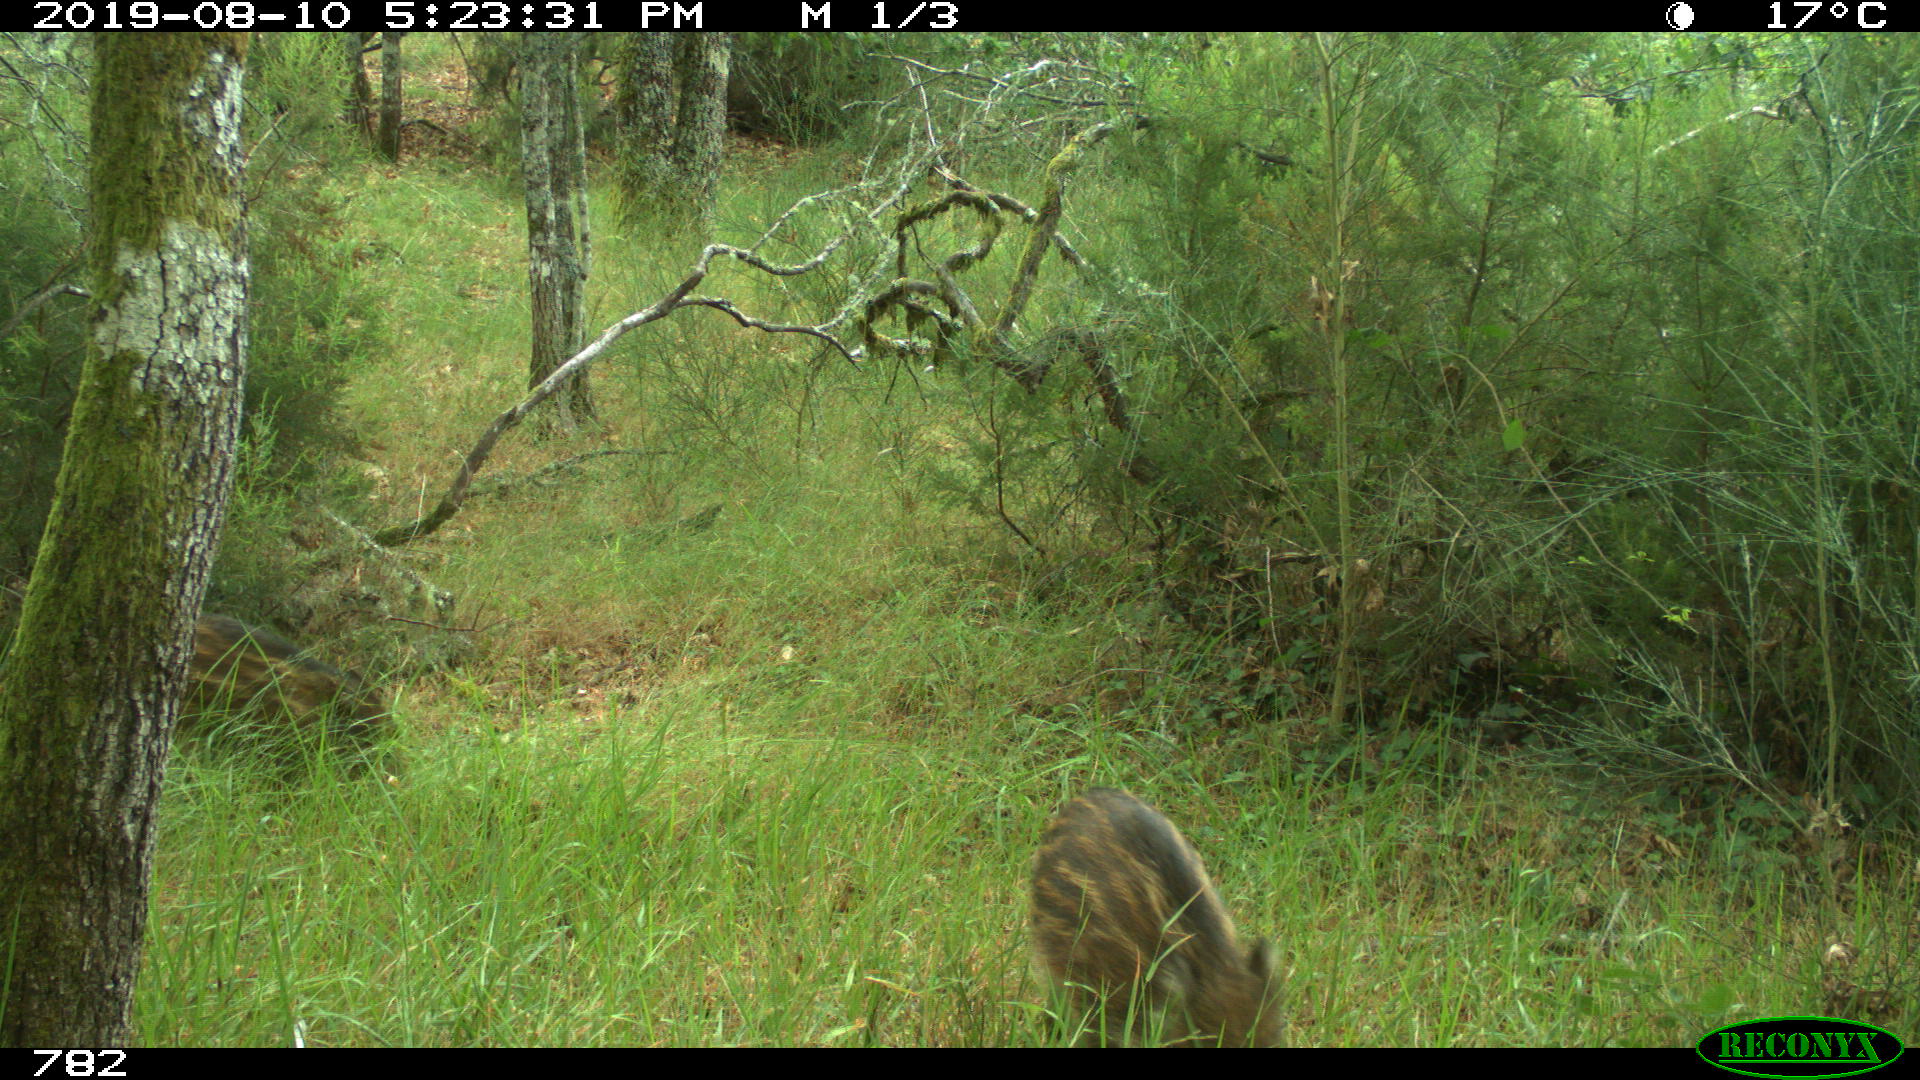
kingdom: Animalia
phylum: Chordata
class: Mammalia
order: Artiodactyla
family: Suidae
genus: Sus
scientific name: Sus scrofa
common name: Wild boar
